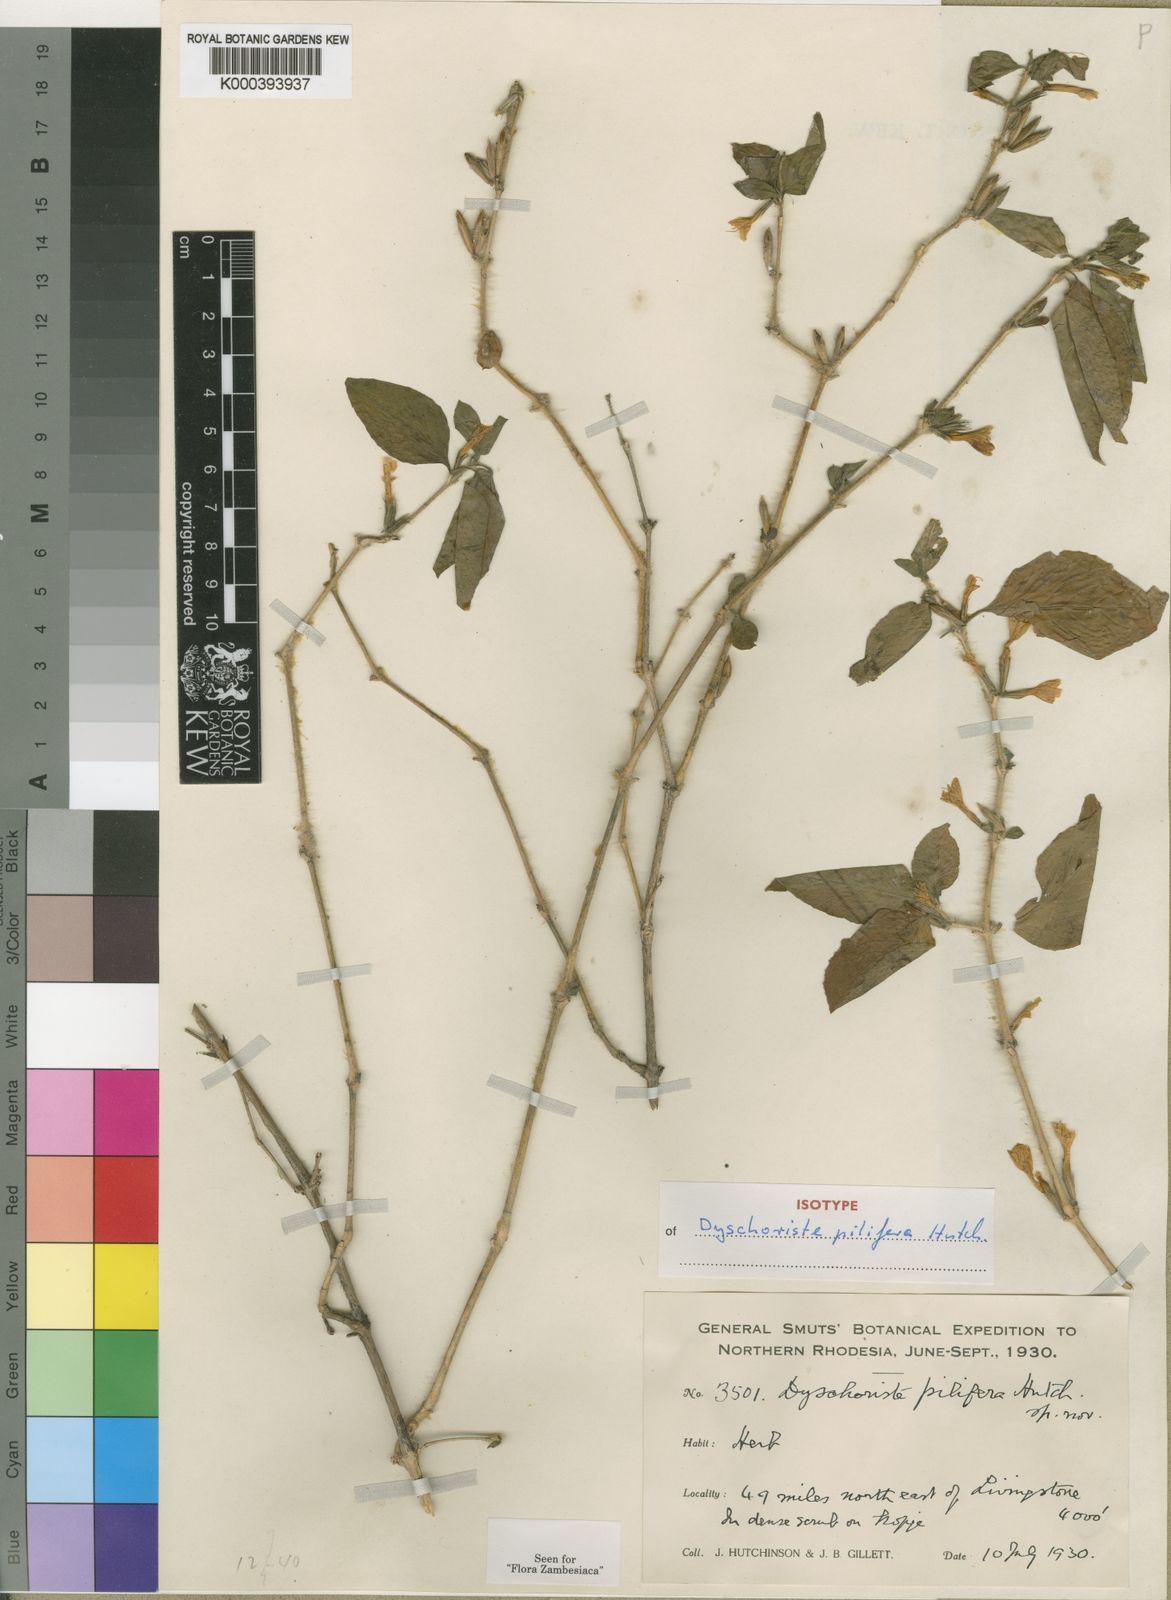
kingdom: Plantae
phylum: Tracheophyta
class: Magnoliopsida
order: Lamiales
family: Acanthaceae
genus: Dyschoriste
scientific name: Dyschoriste pilifera
